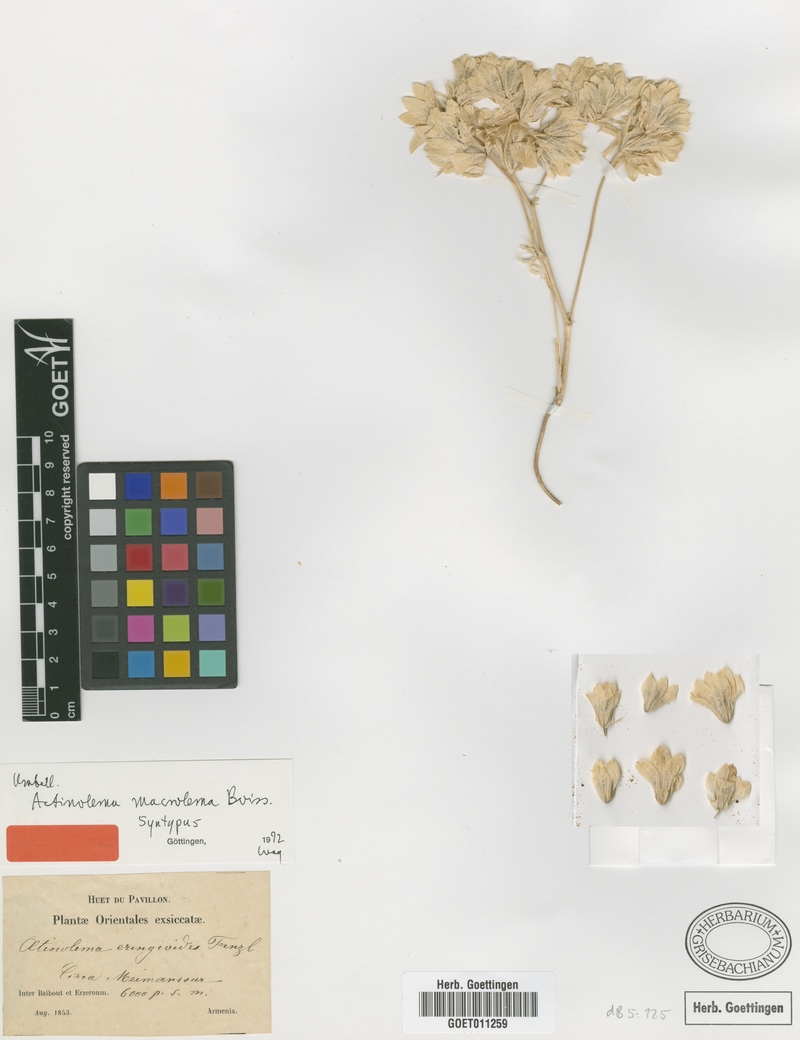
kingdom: Plantae
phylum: Tracheophyta
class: Magnoliopsida
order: Apiales
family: Apiaceae
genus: Actinolema
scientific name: Actinolema macrolema
